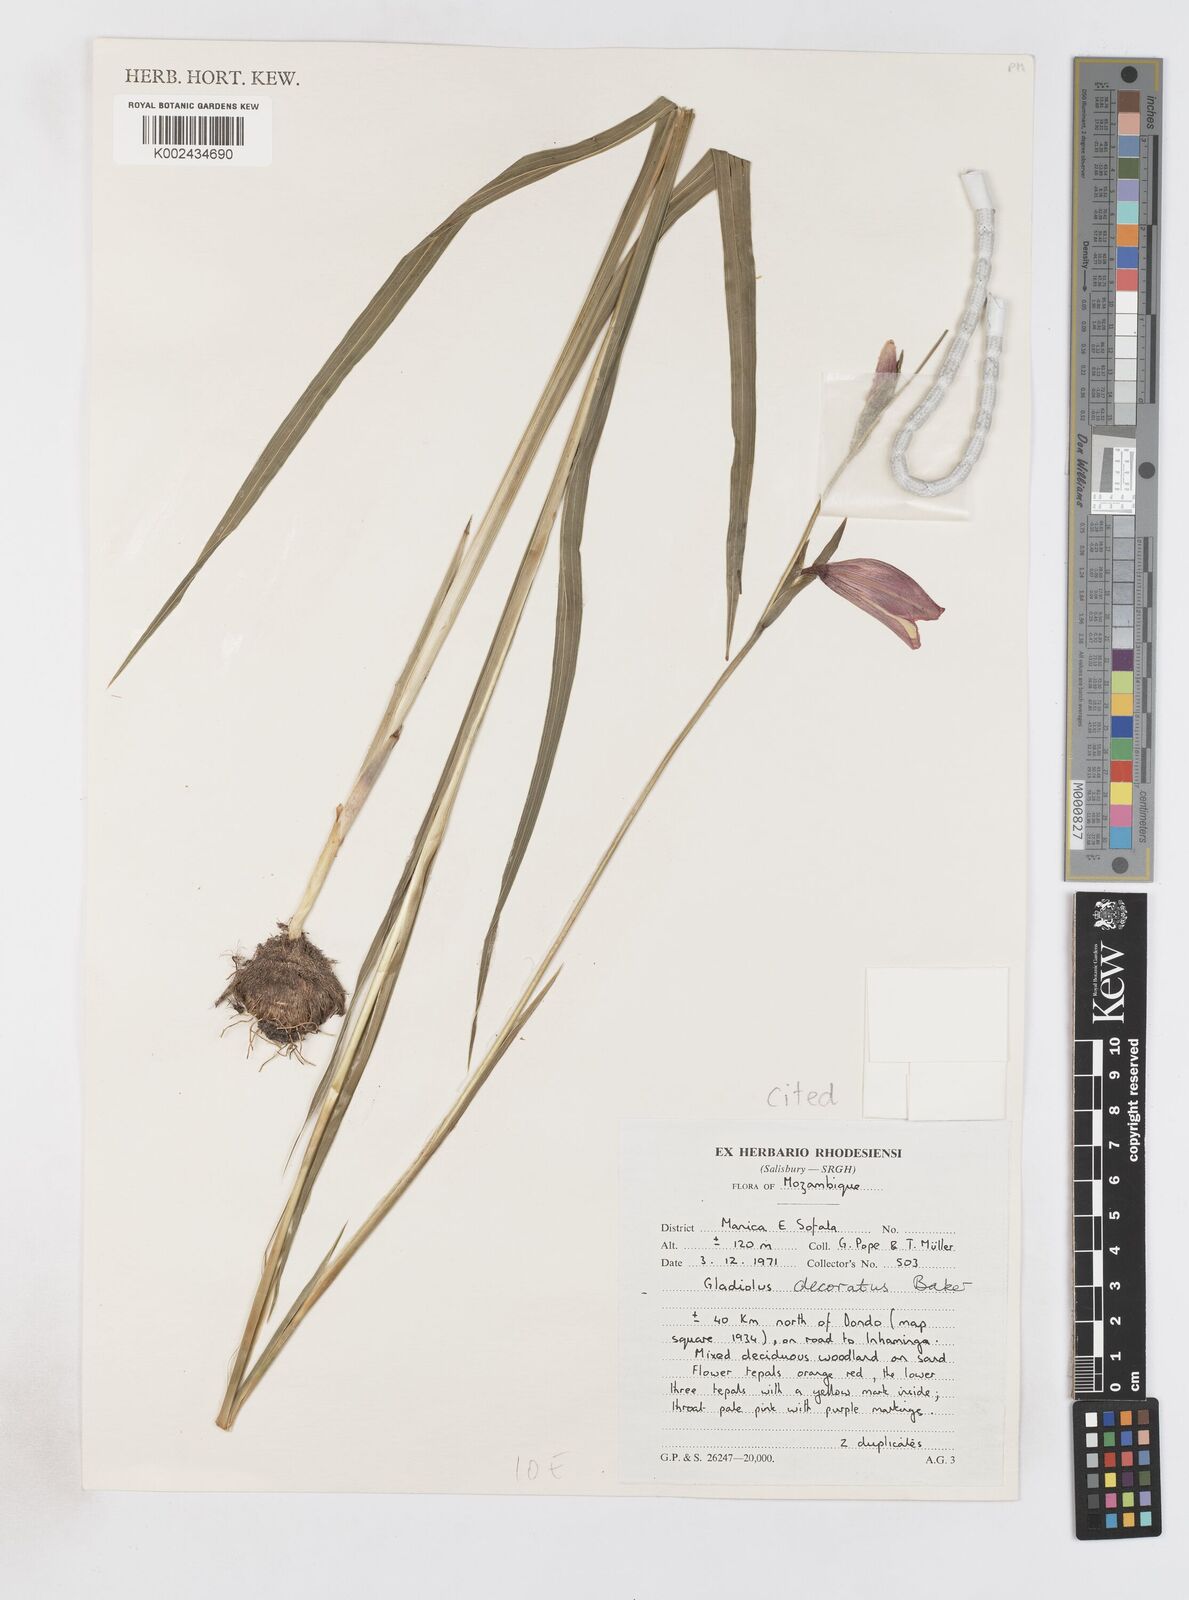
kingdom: Plantae
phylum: Tracheophyta
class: Liliopsida
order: Asparagales
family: Iridaceae
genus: Gladiolus
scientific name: Gladiolus decoratus
